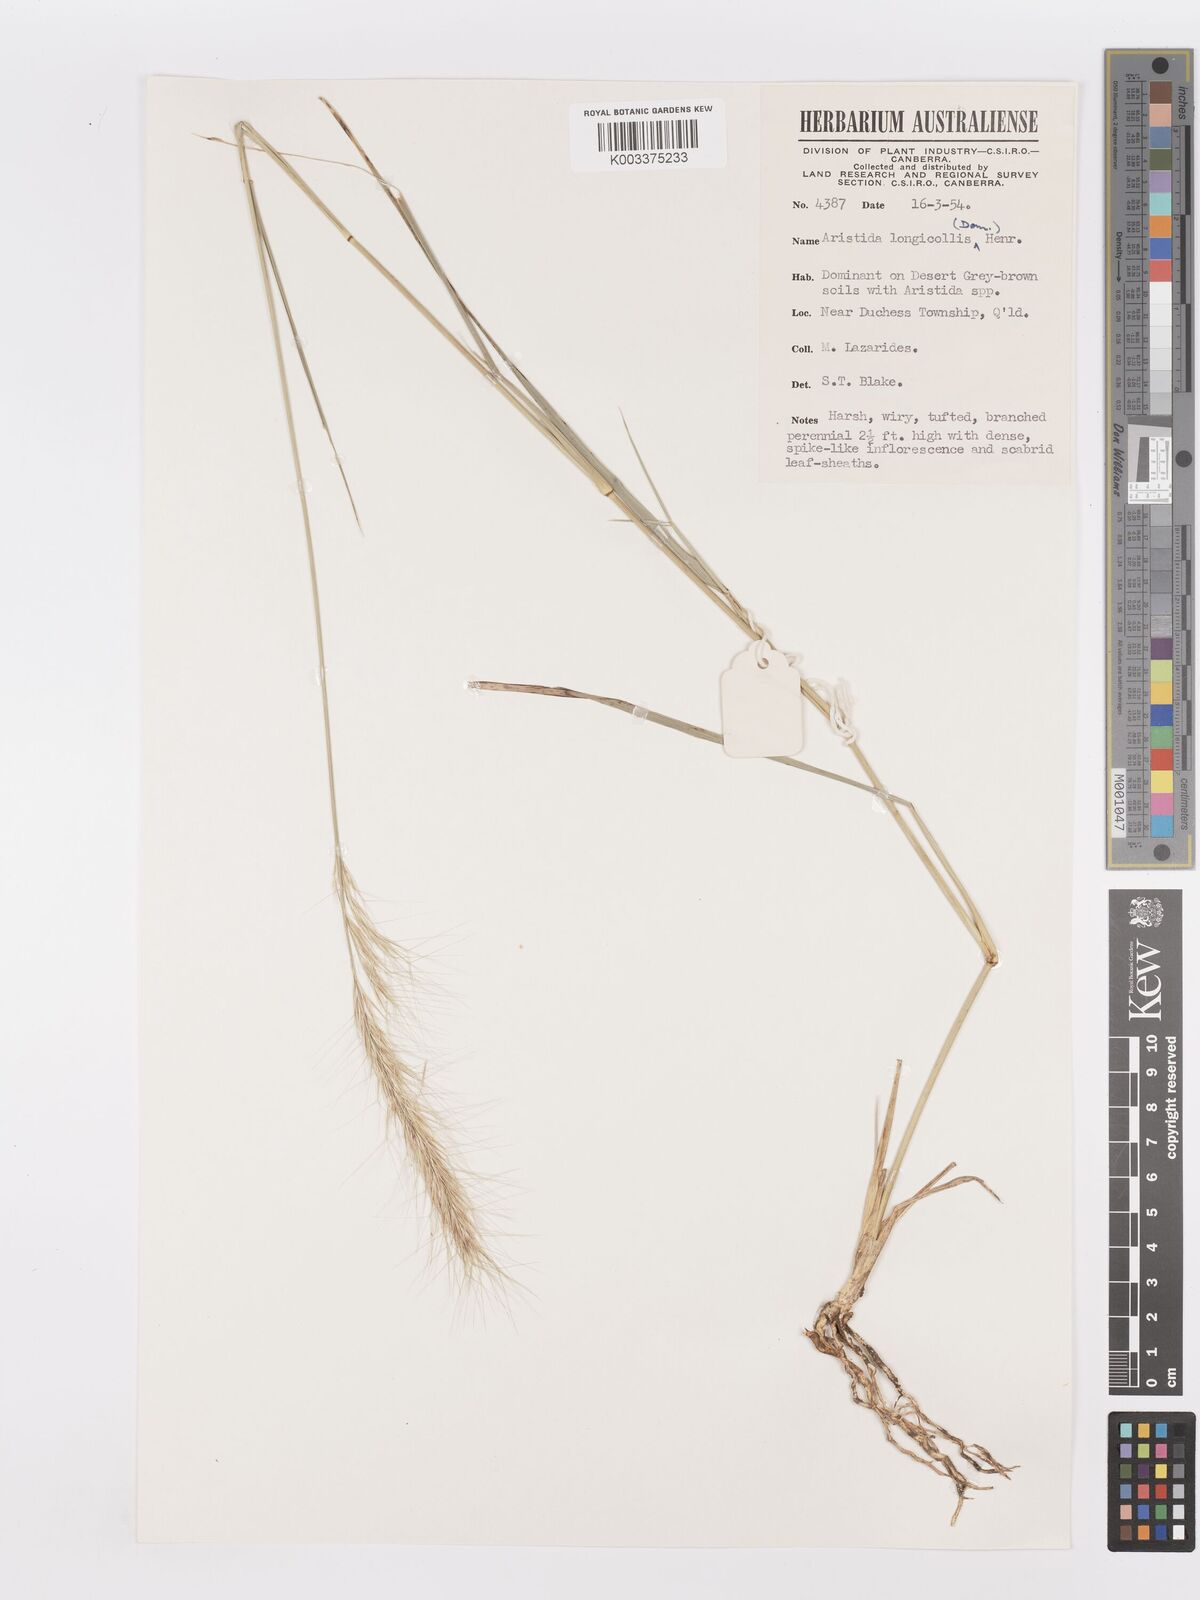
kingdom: Plantae
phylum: Tracheophyta
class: Liliopsida
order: Poales
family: Poaceae
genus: Aristida
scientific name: Aristida longicollis
